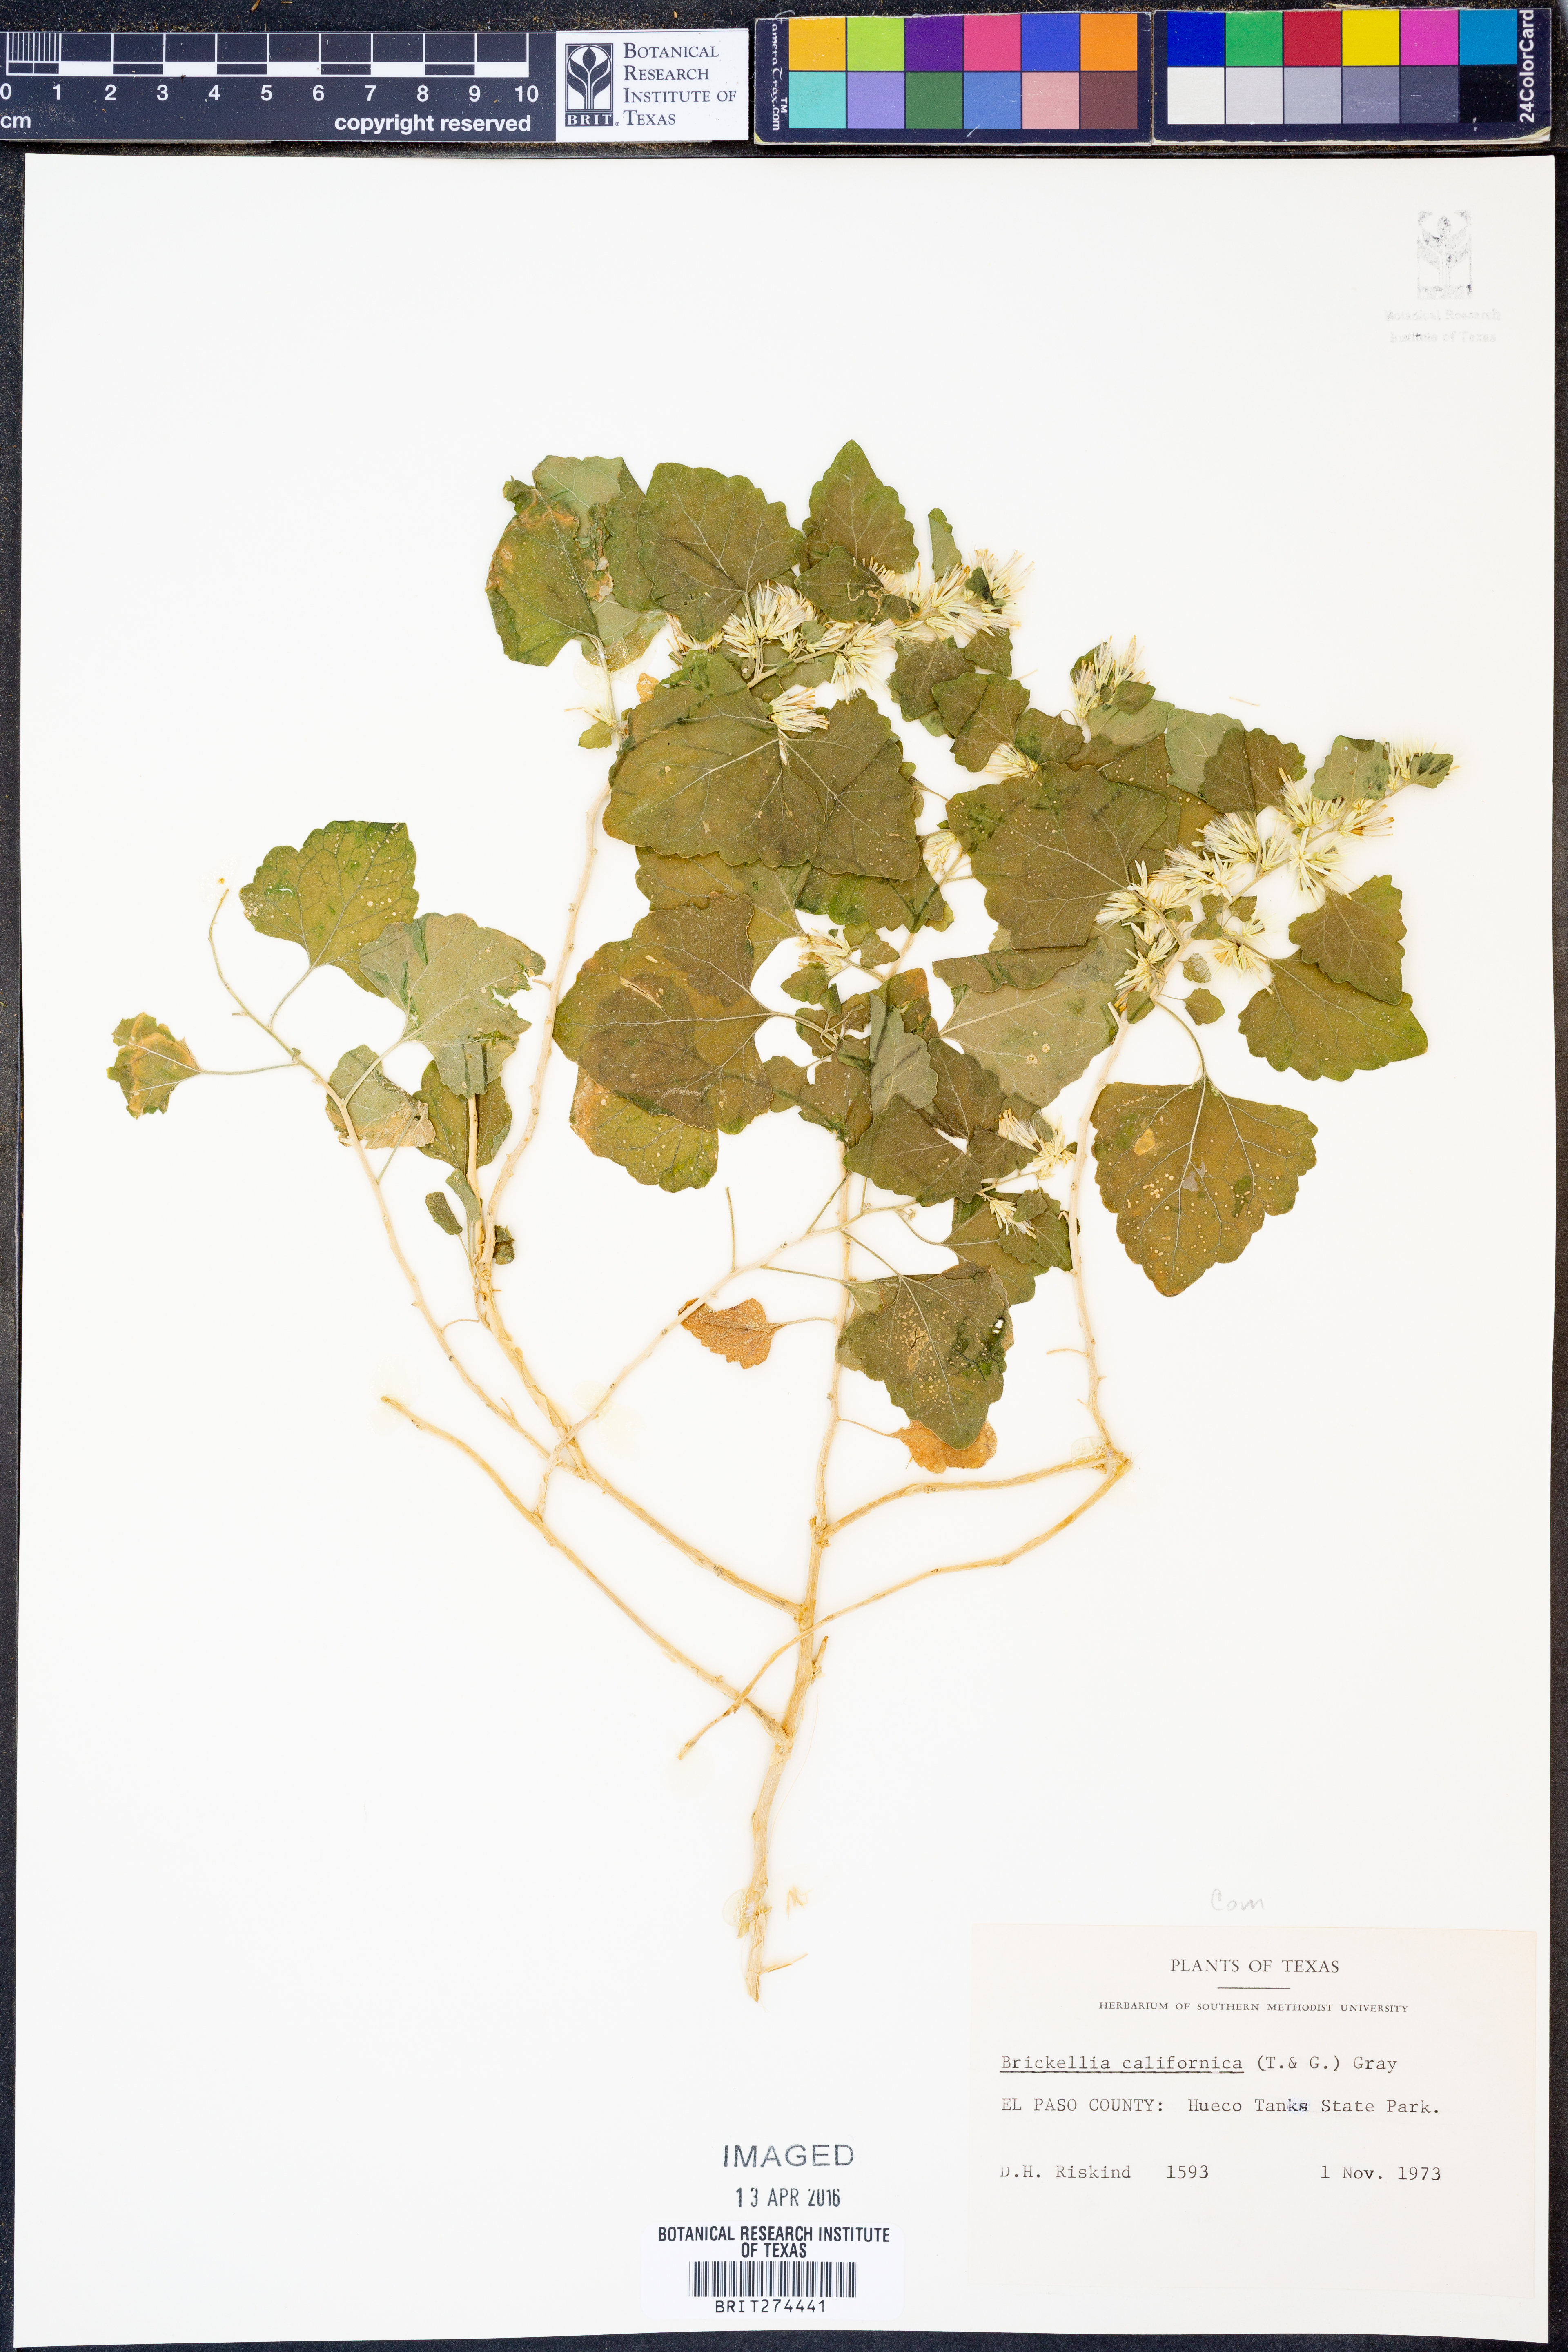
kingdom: Plantae
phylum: Tracheophyta
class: Magnoliopsida
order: Asterales
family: Asteraceae
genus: Brickellia
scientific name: Brickellia californica
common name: California brickellbush
